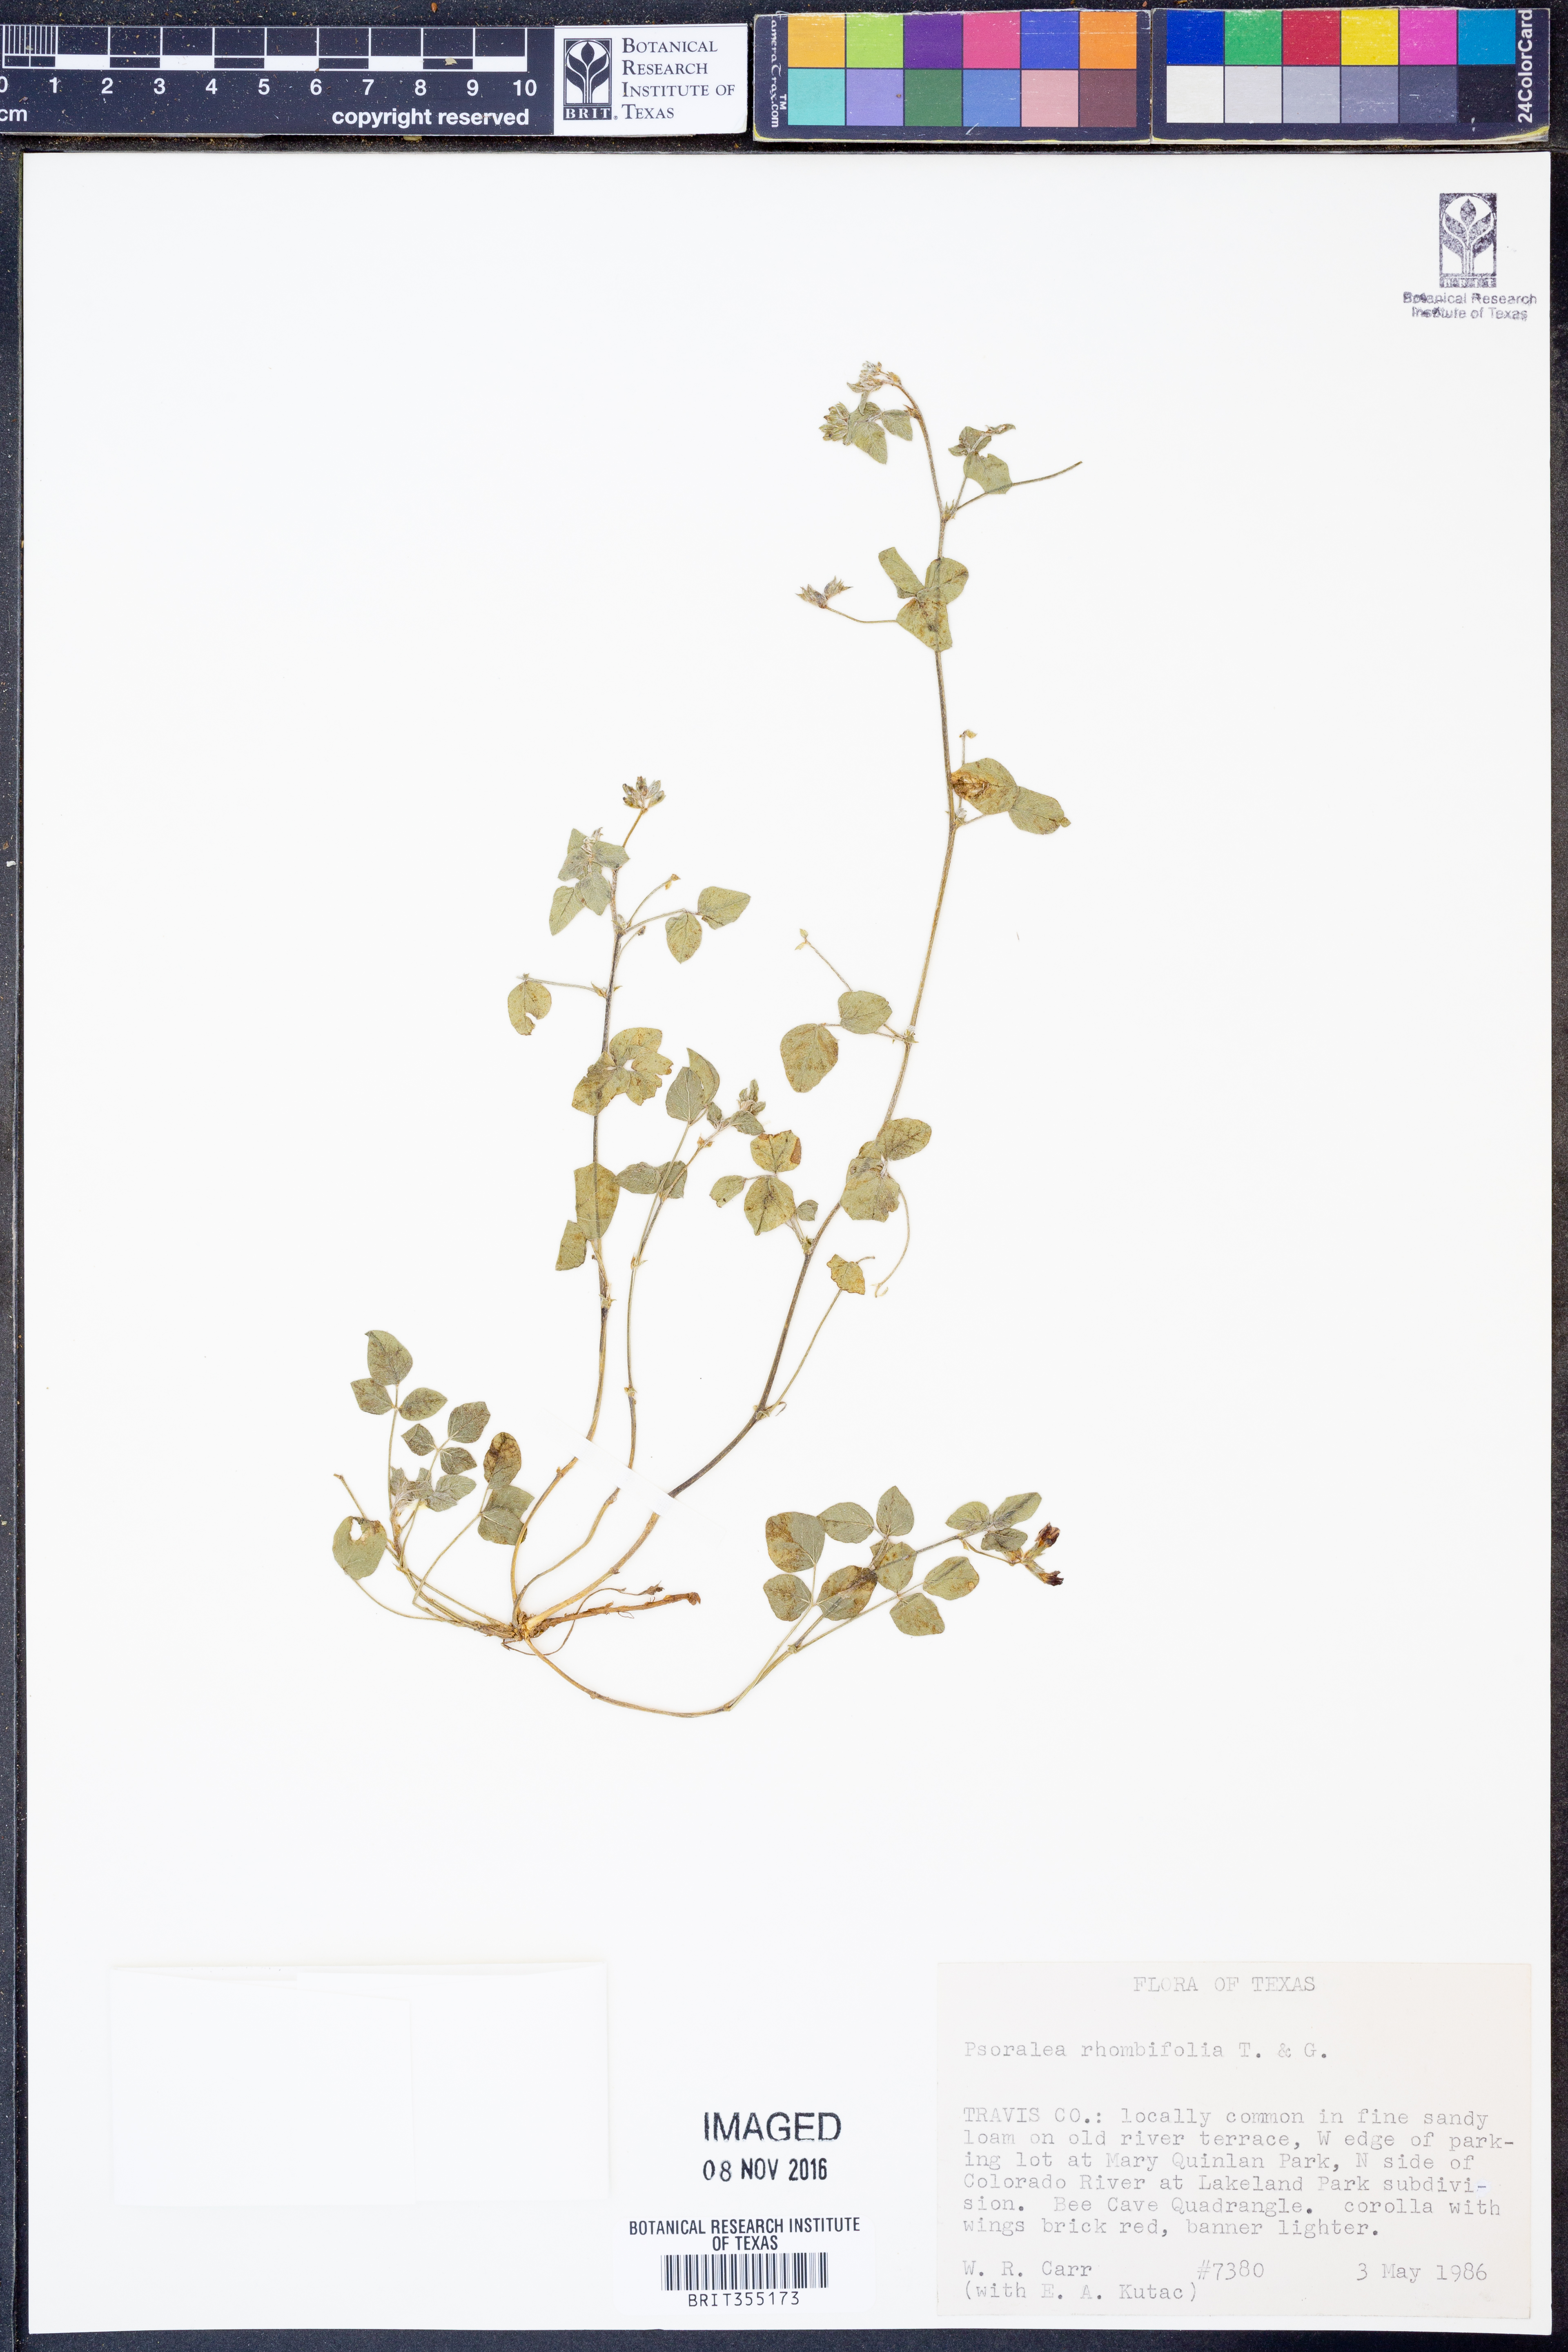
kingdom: Plantae
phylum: Tracheophyta
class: Magnoliopsida
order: Fabales
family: Fabaceae
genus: Pediomelum
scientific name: Pediomelum rhombifolium
